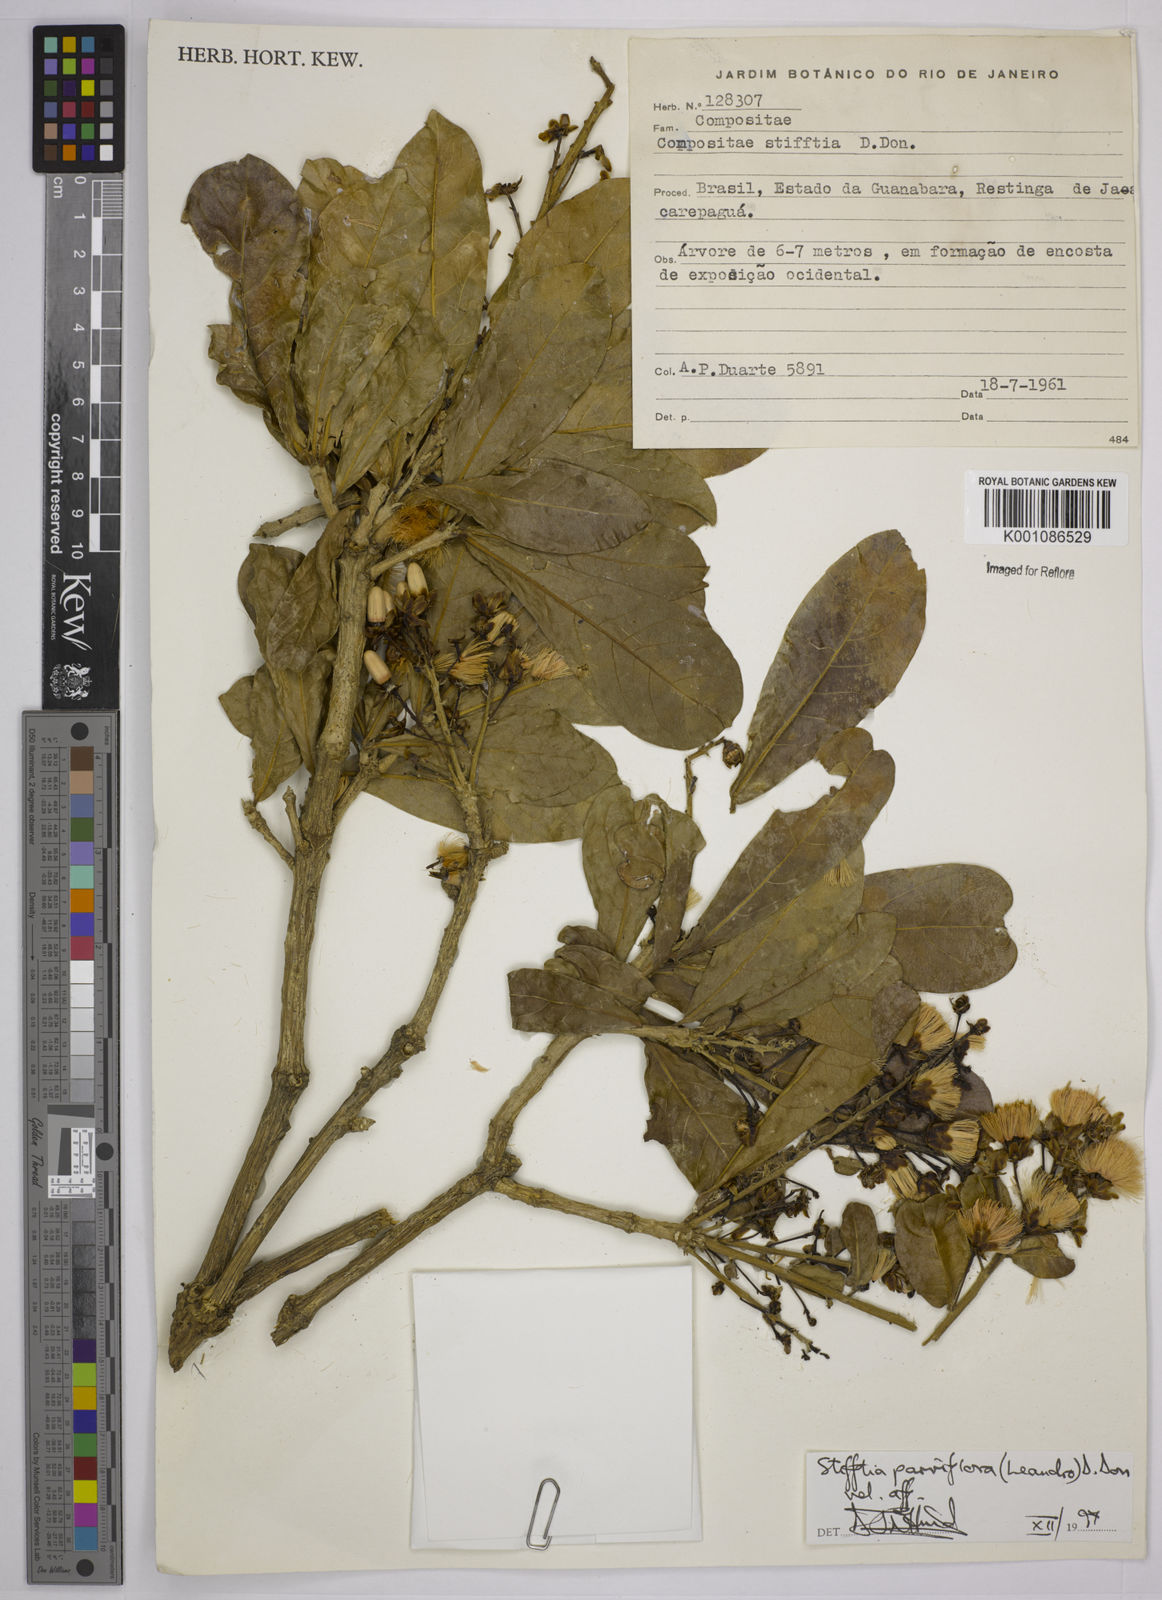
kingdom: Plantae
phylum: Tracheophyta
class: Magnoliopsida
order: Asterales
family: Asteraceae
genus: Stifftia
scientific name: Stifftia parviflora
